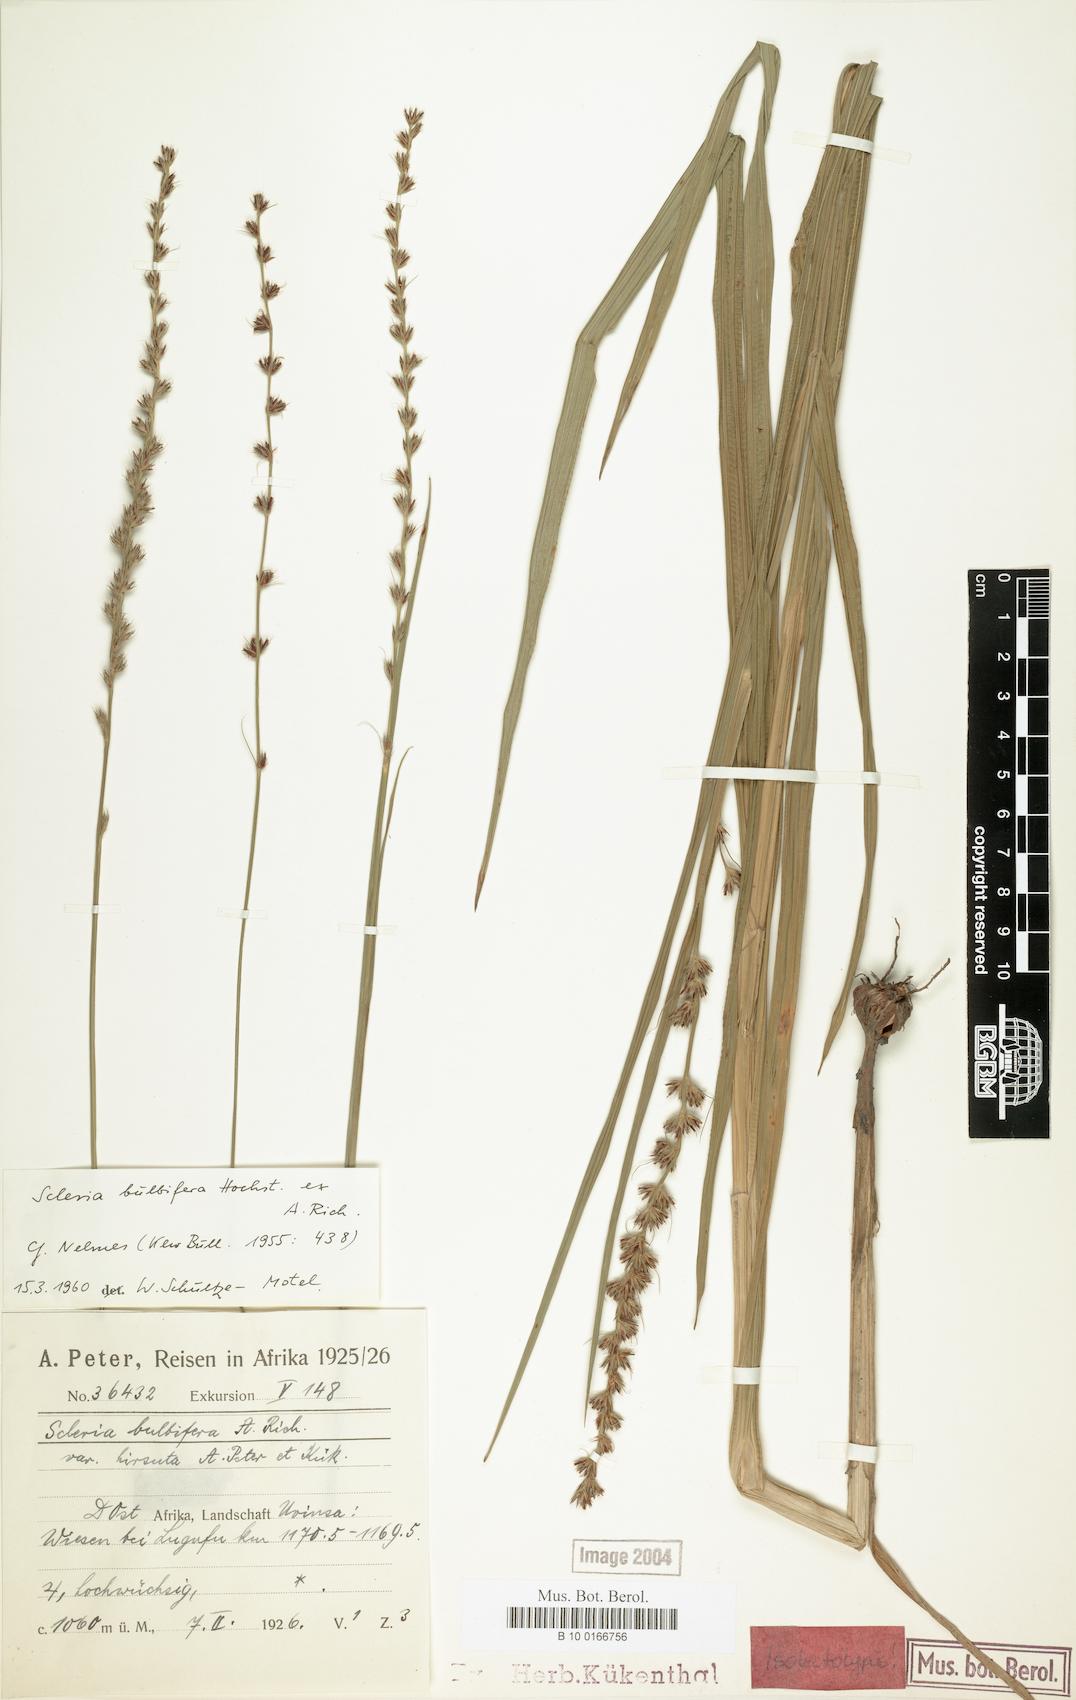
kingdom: Plantae
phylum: Tracheophyta
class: Liliopsida
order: Poales
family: Cyperaceae
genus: Scleria
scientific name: Scleria bulbifera
